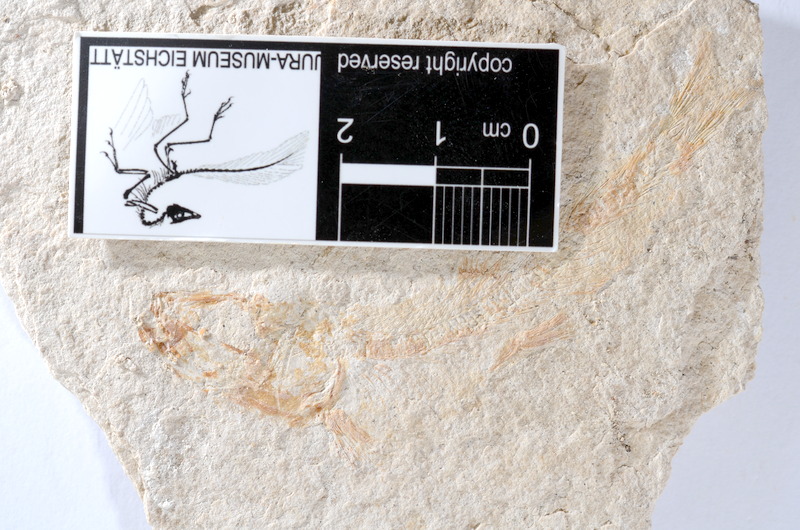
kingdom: Animalia
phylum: Chordata
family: Ascalaboidae
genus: Tharsis
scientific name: Tharsis dubius
